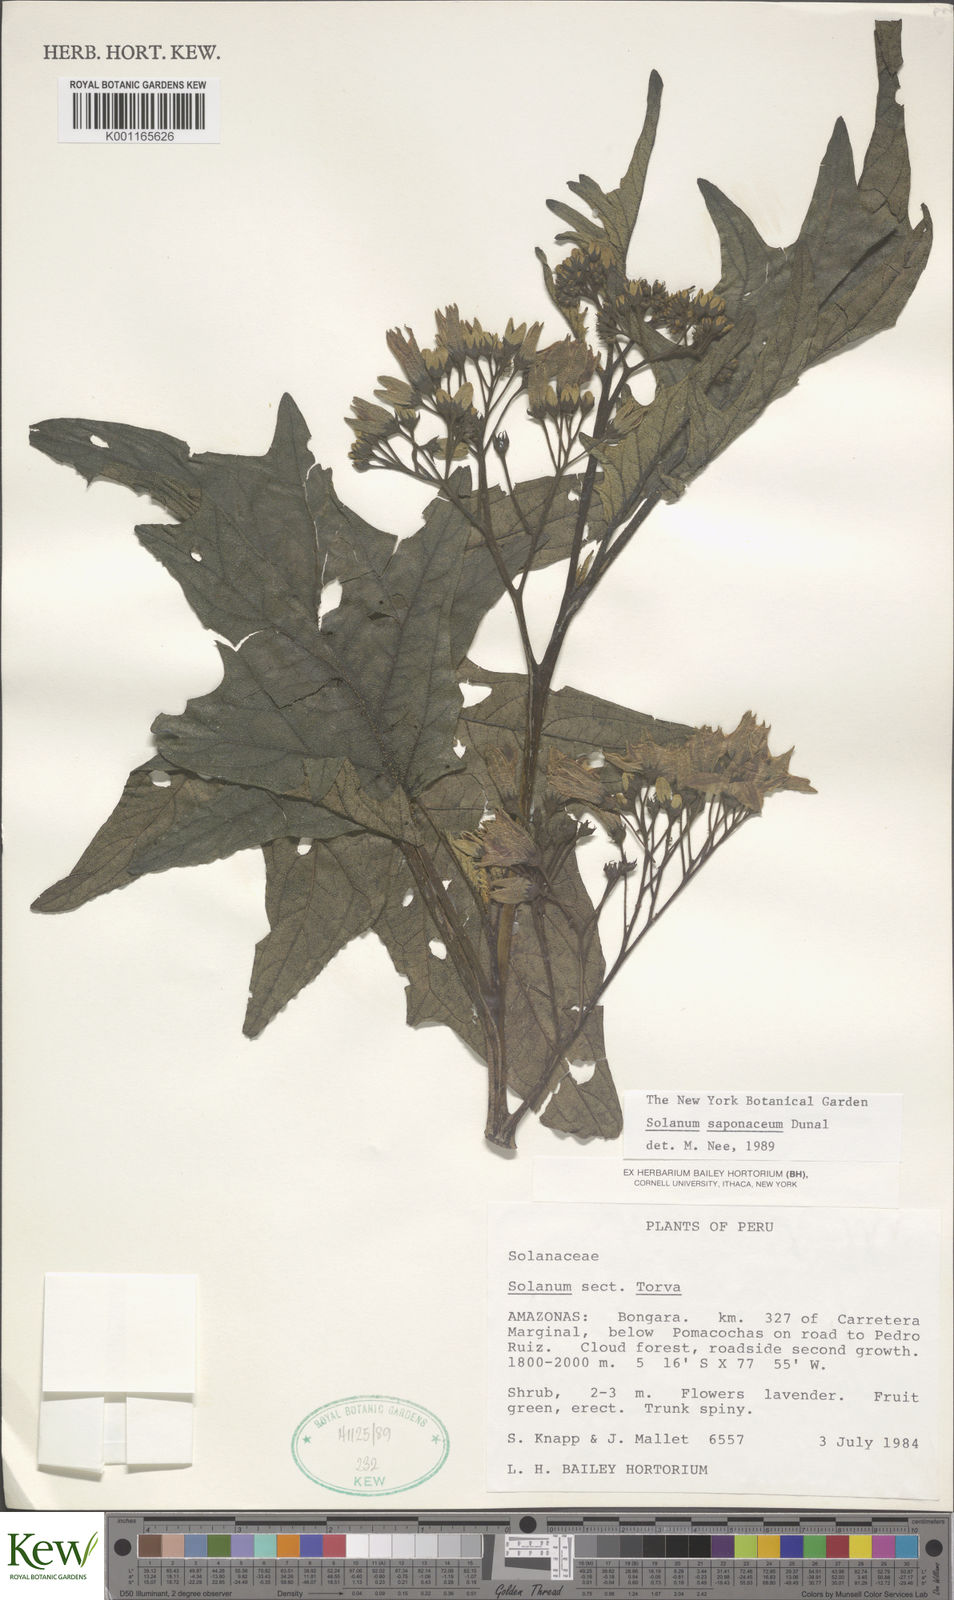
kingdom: Plantae
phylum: Tracheophyta
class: Magnoliopsida
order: Solanales
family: Solanaceae
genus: Solanum
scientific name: Solanum saponaceum
